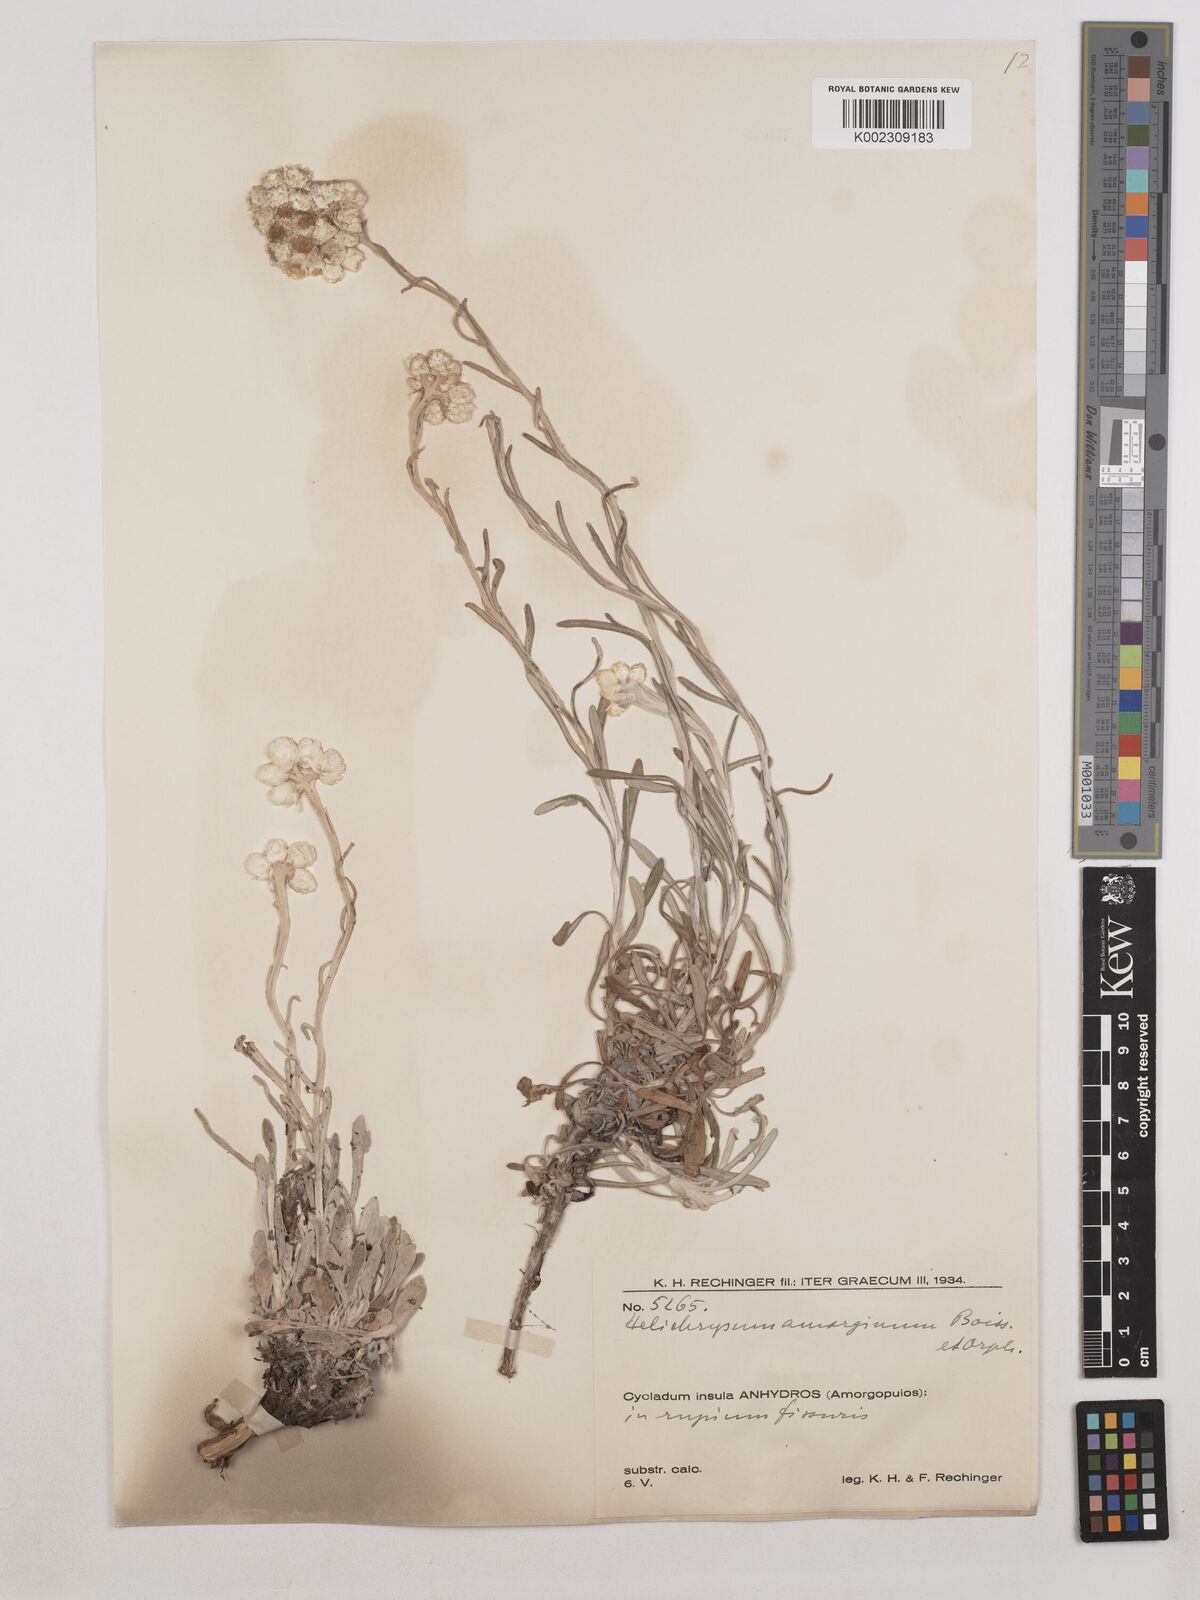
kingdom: Plantae
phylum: Tracheophyta
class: Magnoliopsida
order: Asterales
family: Asteraceae
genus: Helichrysum
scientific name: Helichrysum amorginum
